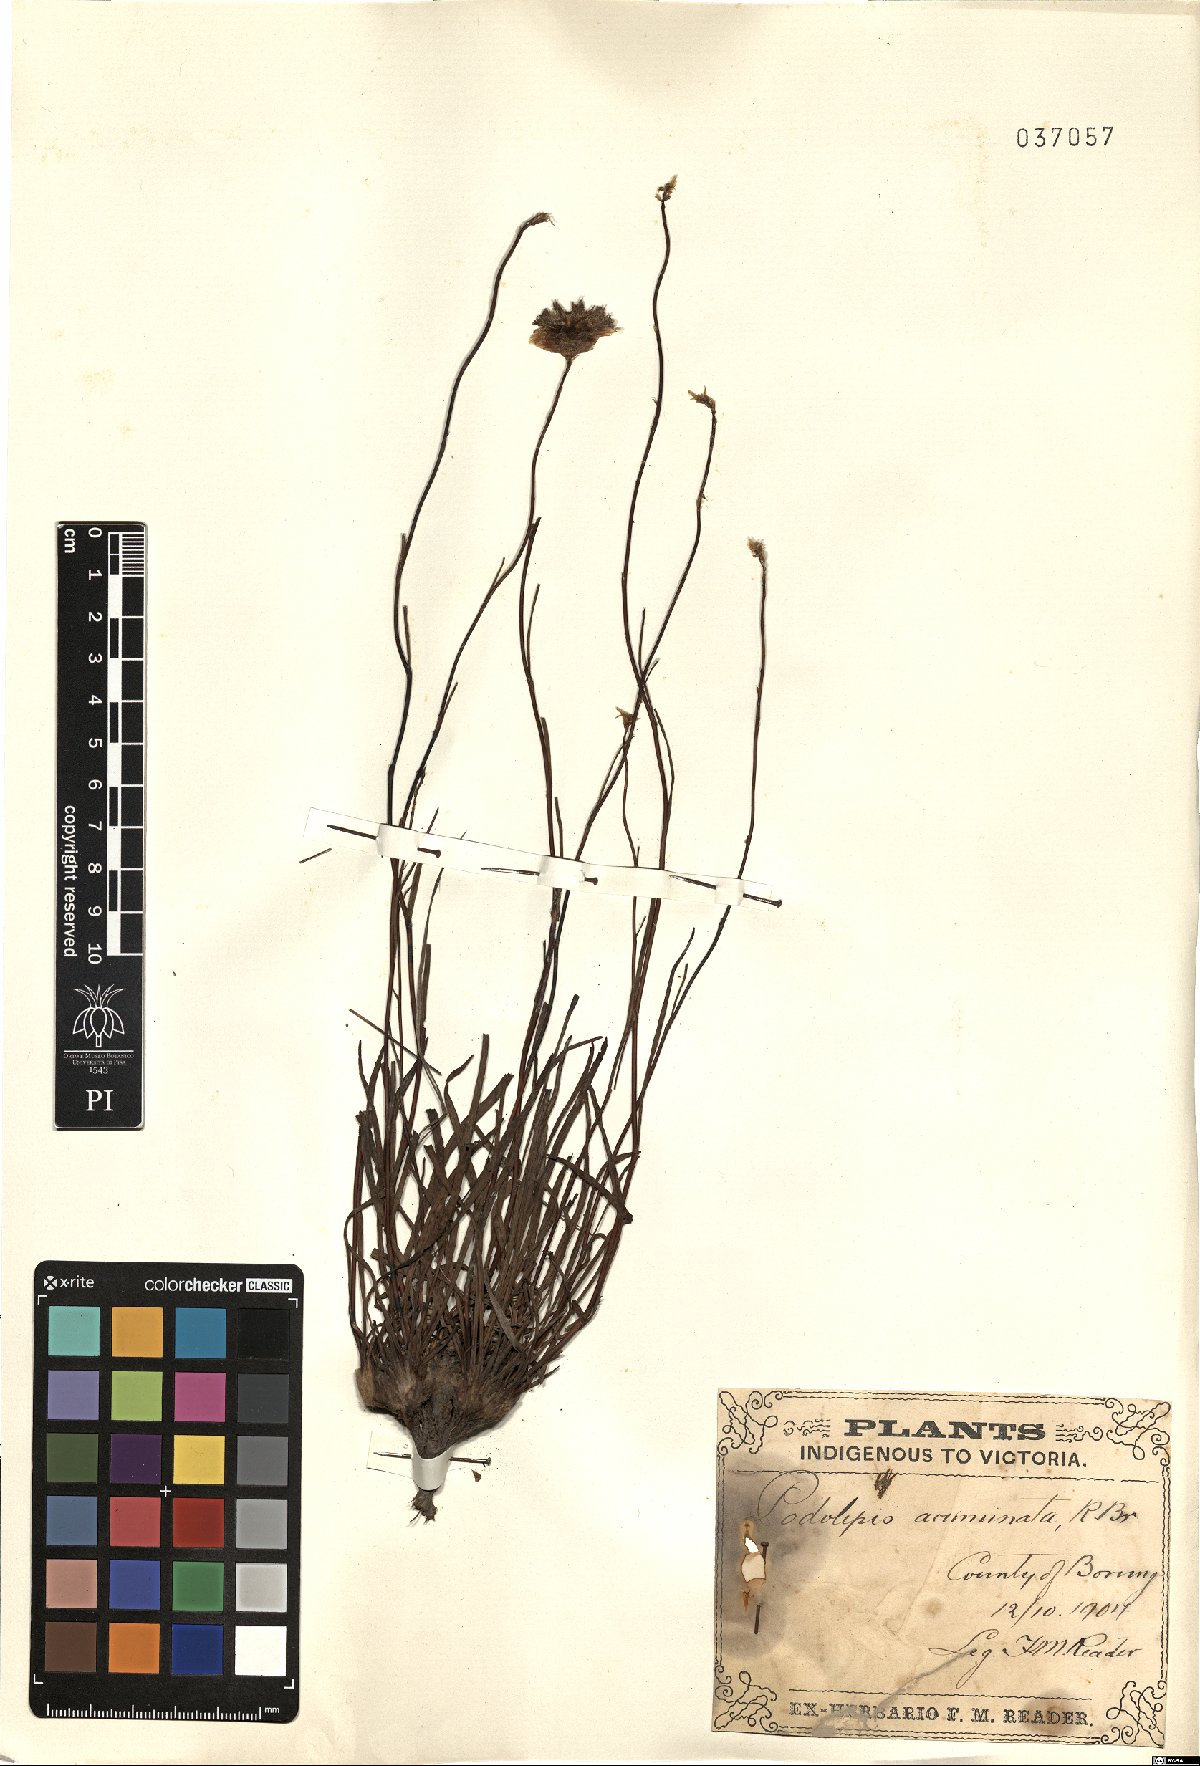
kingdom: Plantae
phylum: Tracheophyta
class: Magnoliopsida
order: Asterales
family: Asteraceae
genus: Podolepis
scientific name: Podolepis jaceoides
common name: Showy copper-wired daisy
